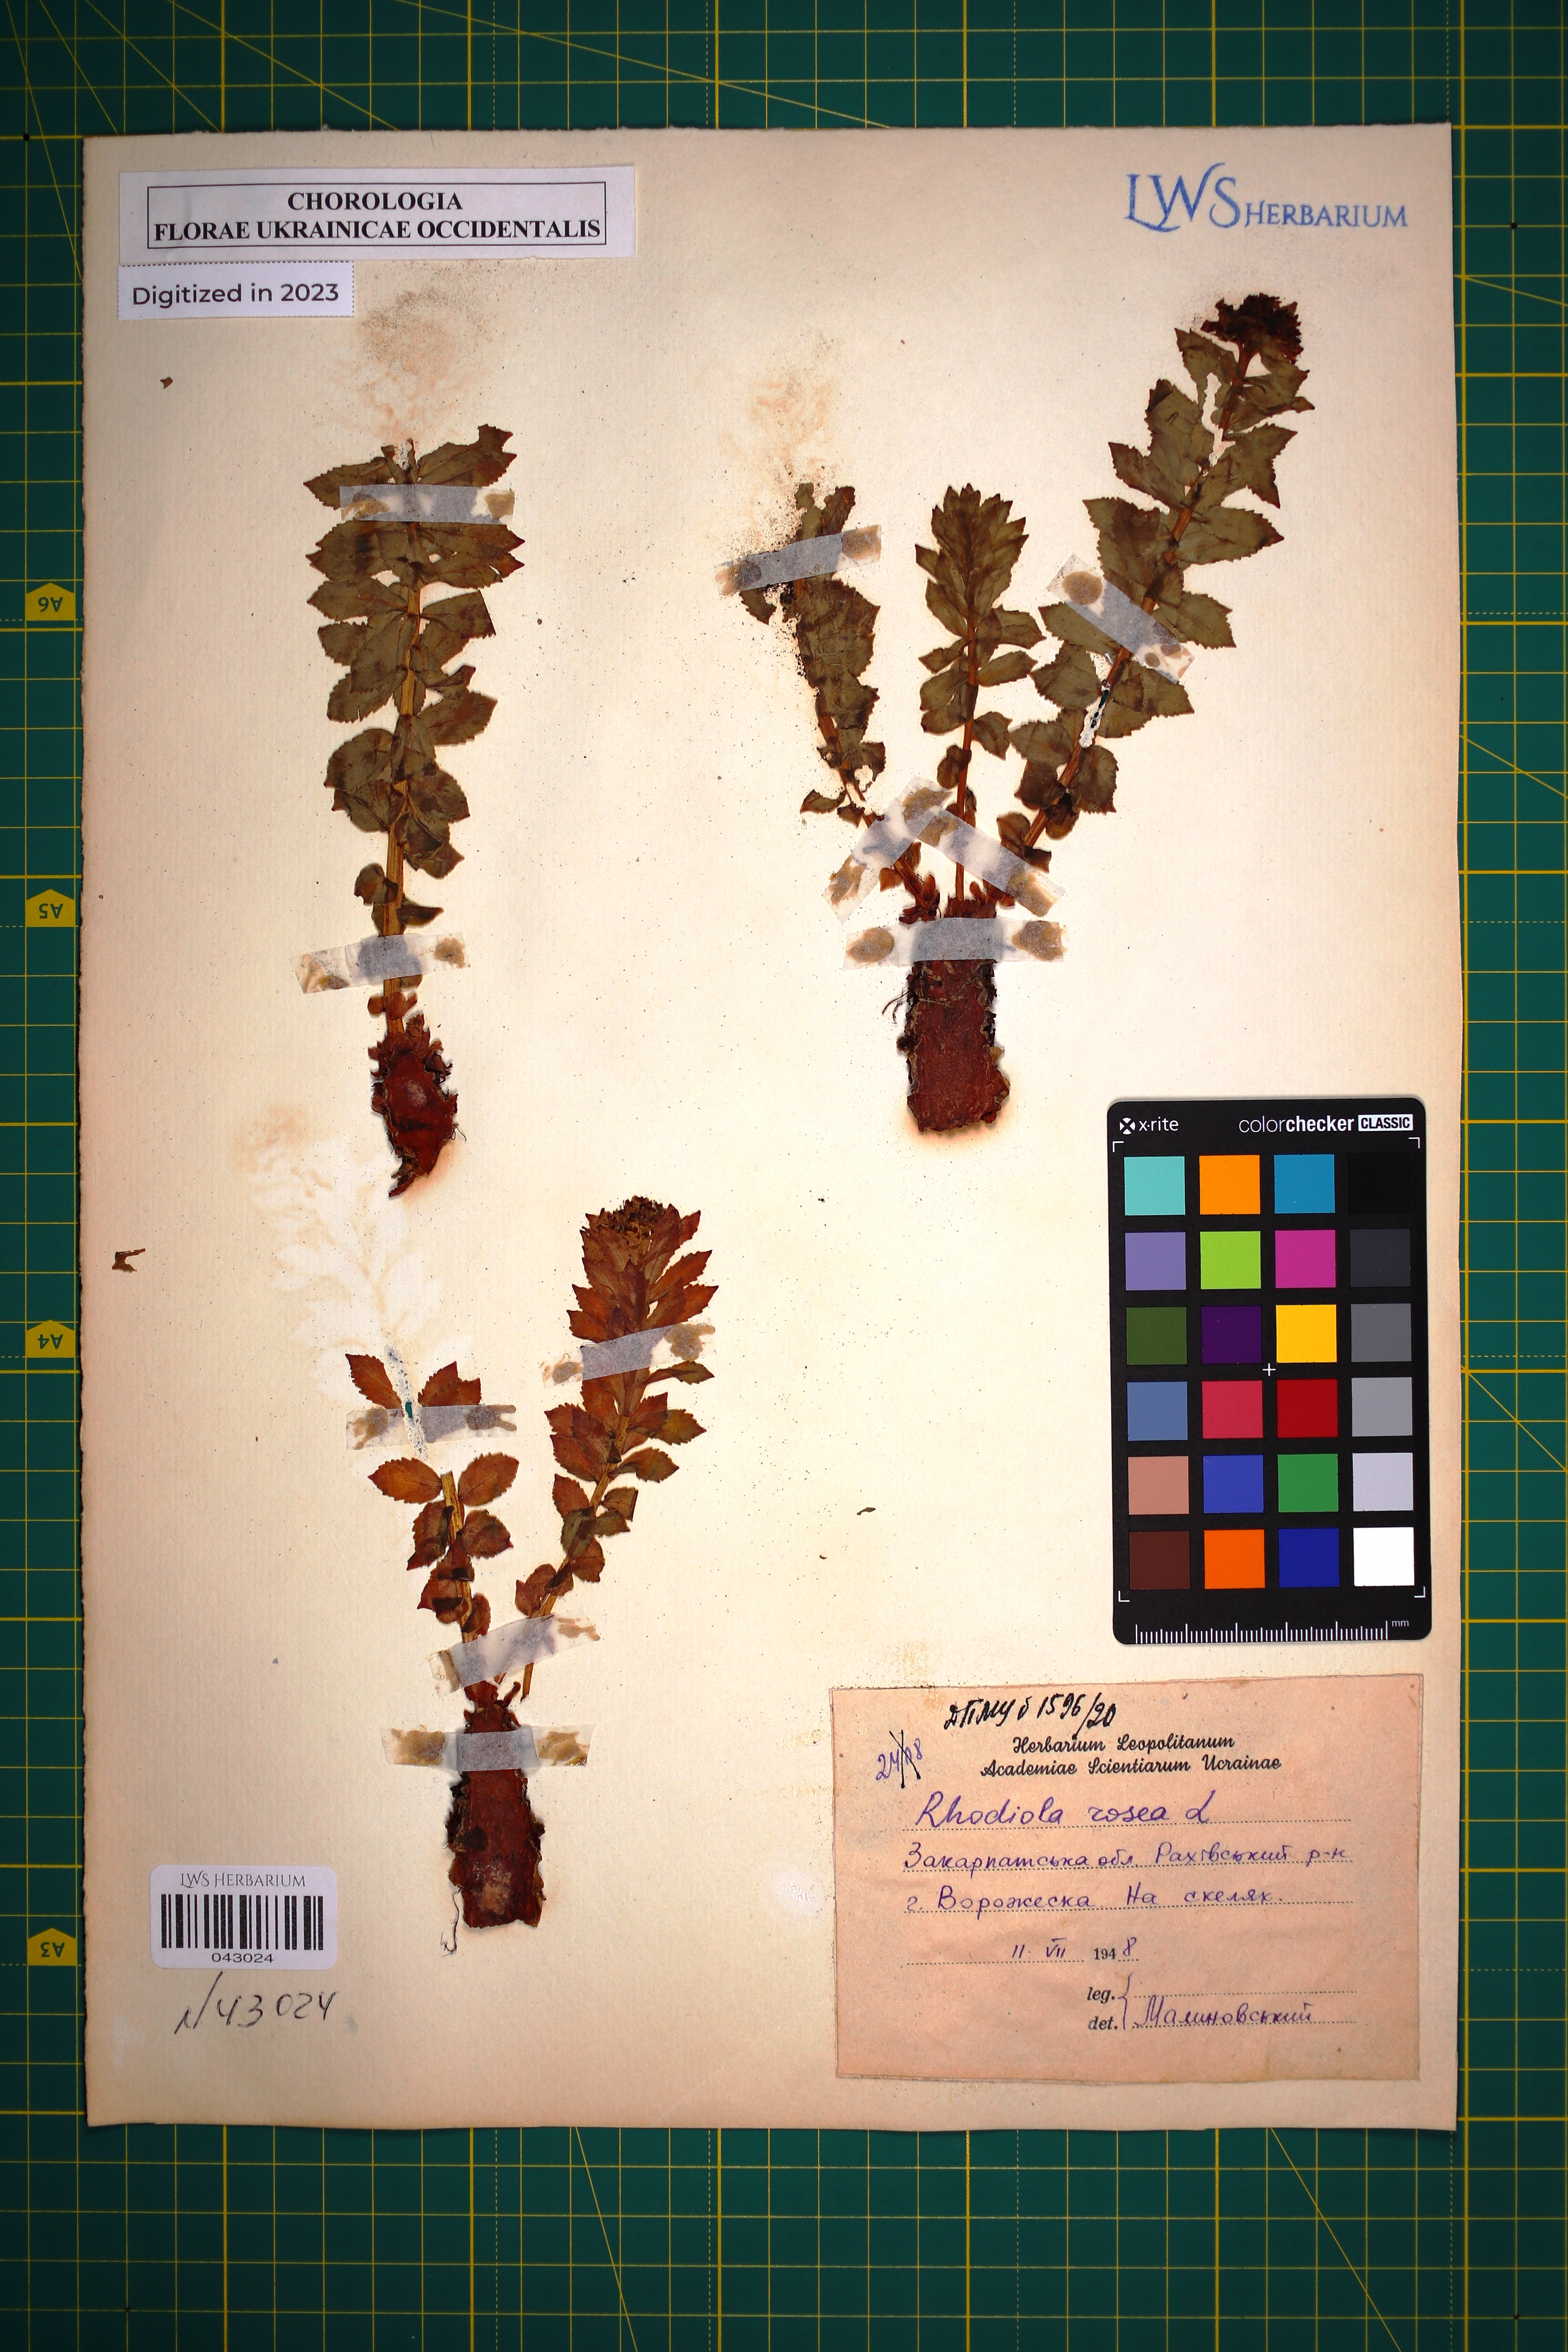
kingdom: Plantae
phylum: Tracheophyta
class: Magnoliopsida
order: Saxifragales
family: Crassulaceae
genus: Rhodiola
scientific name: Rhodiola rosea
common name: Roseroot
